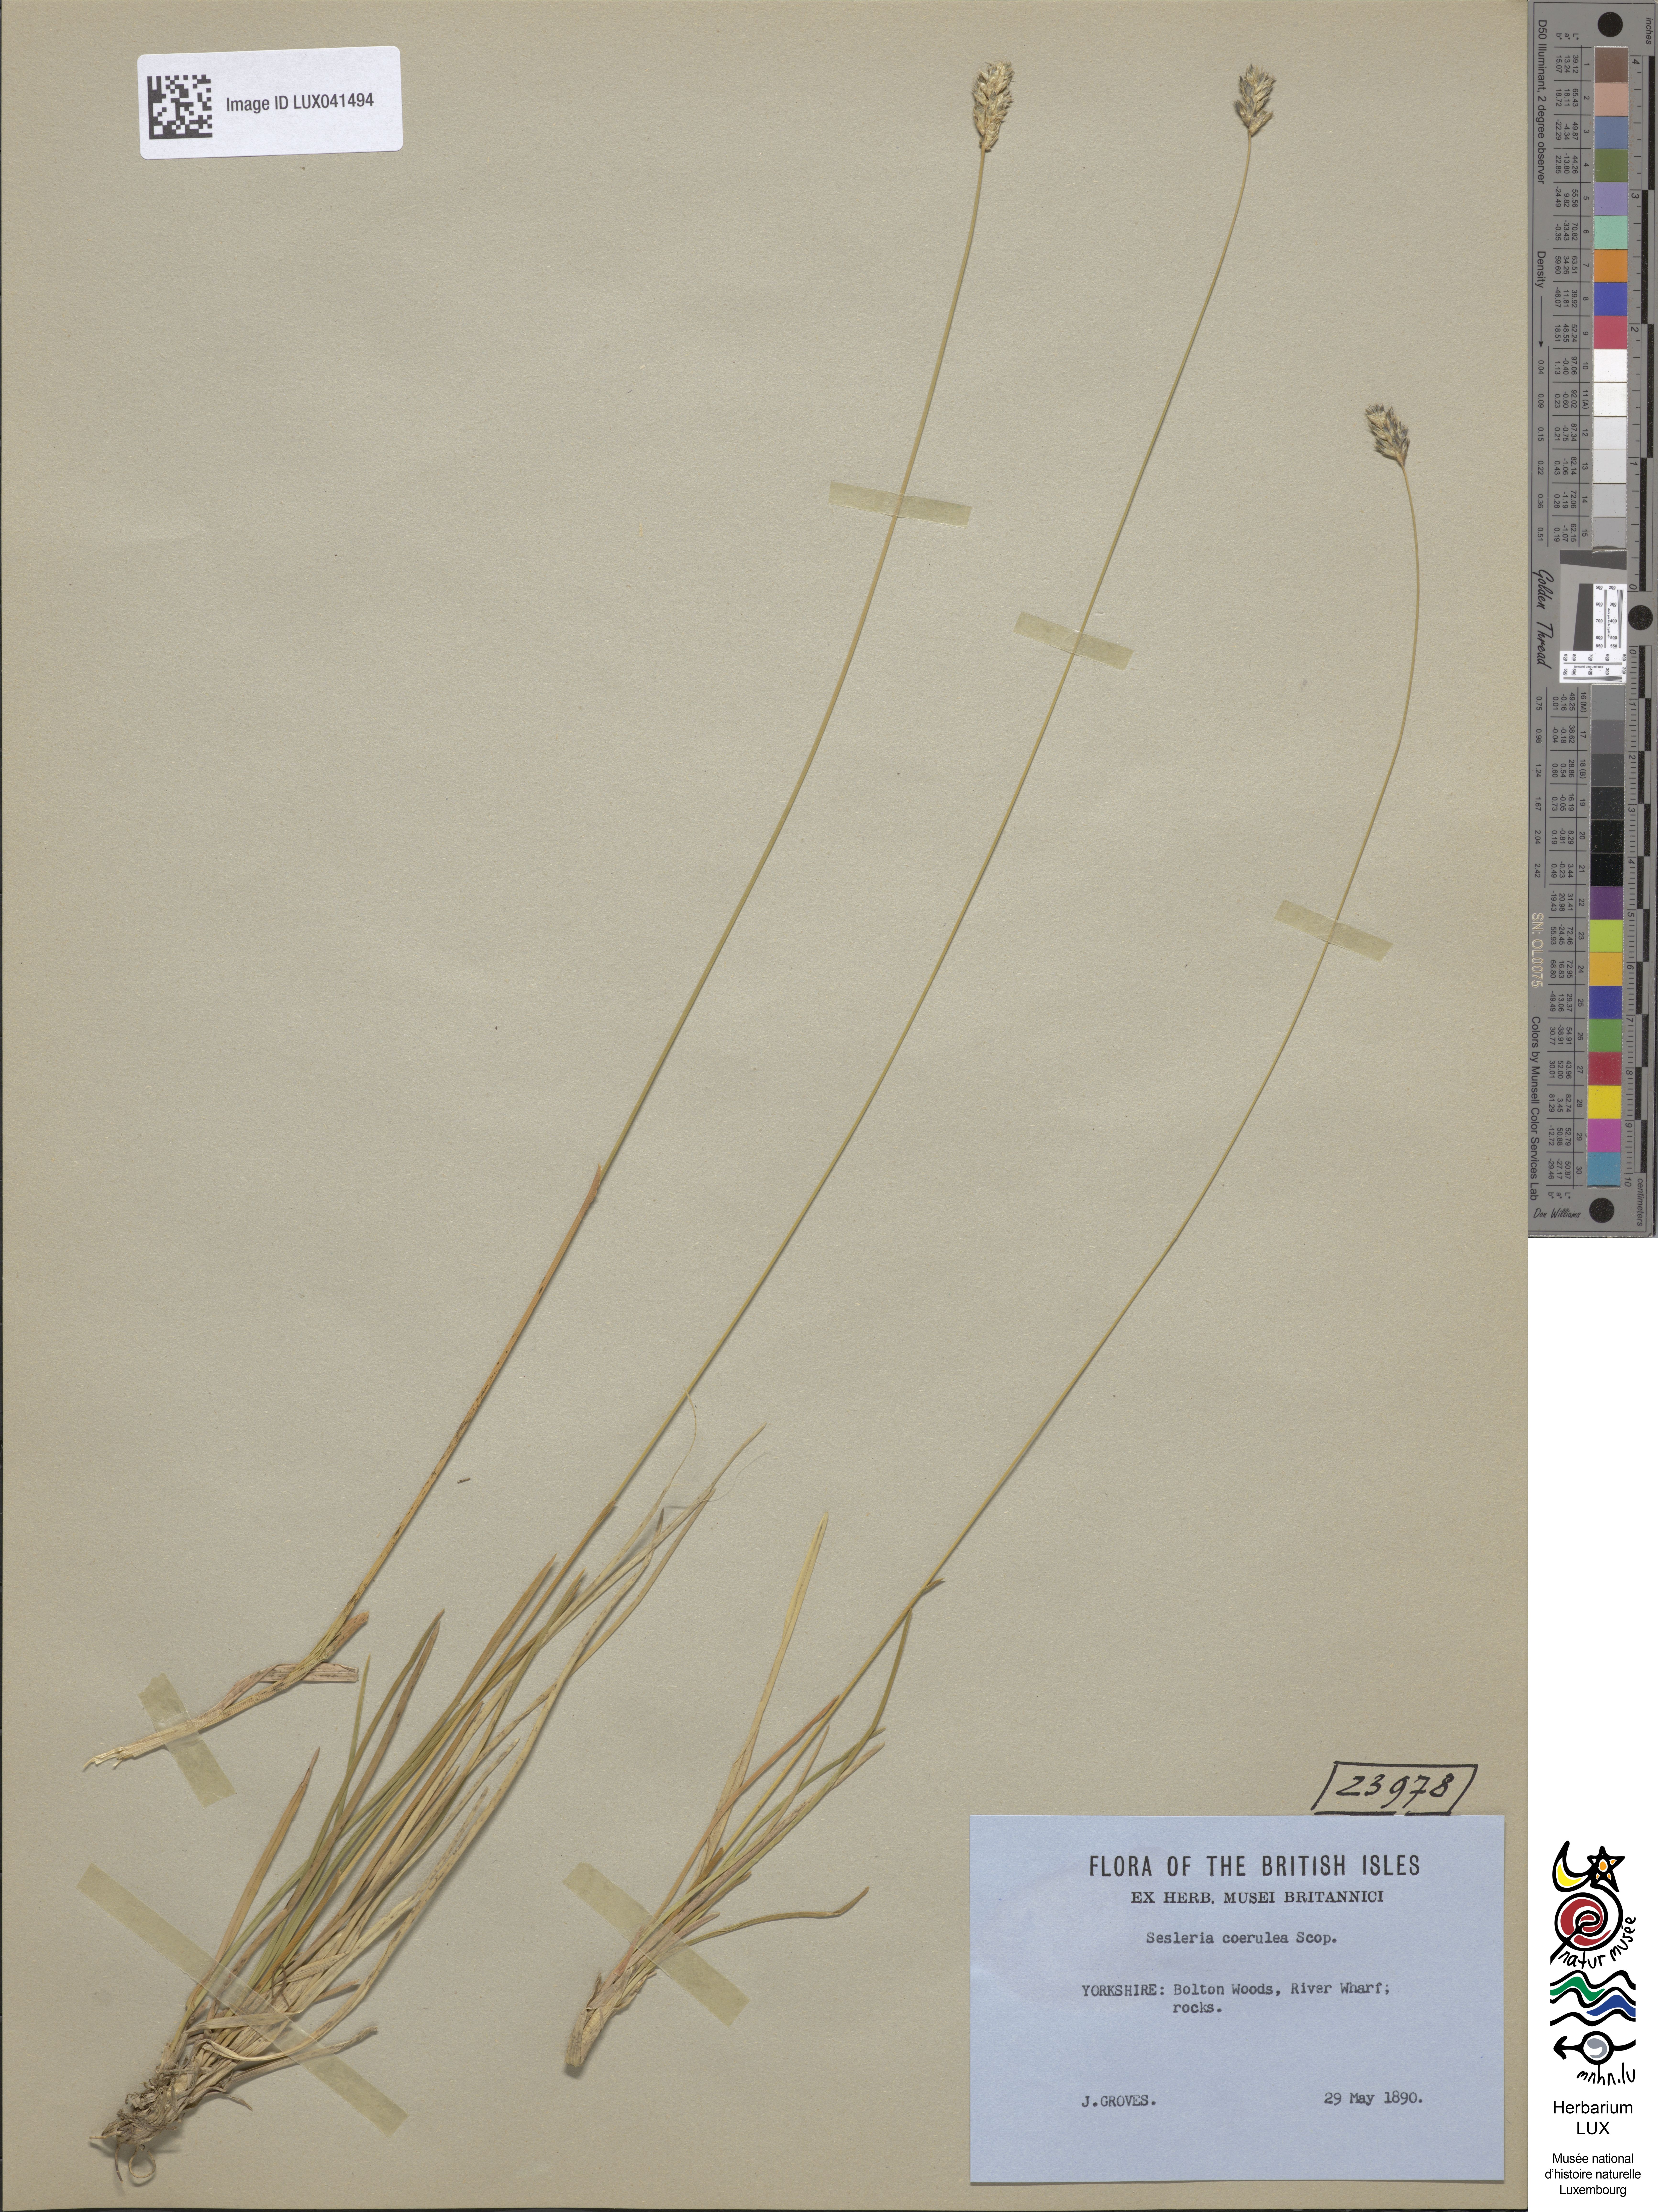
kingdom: Plantae
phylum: Tracheophyta
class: Liliopsida
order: Poales
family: Poaceae
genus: Sesleria
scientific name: Sesleria caerulea
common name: Blue moor-grass
